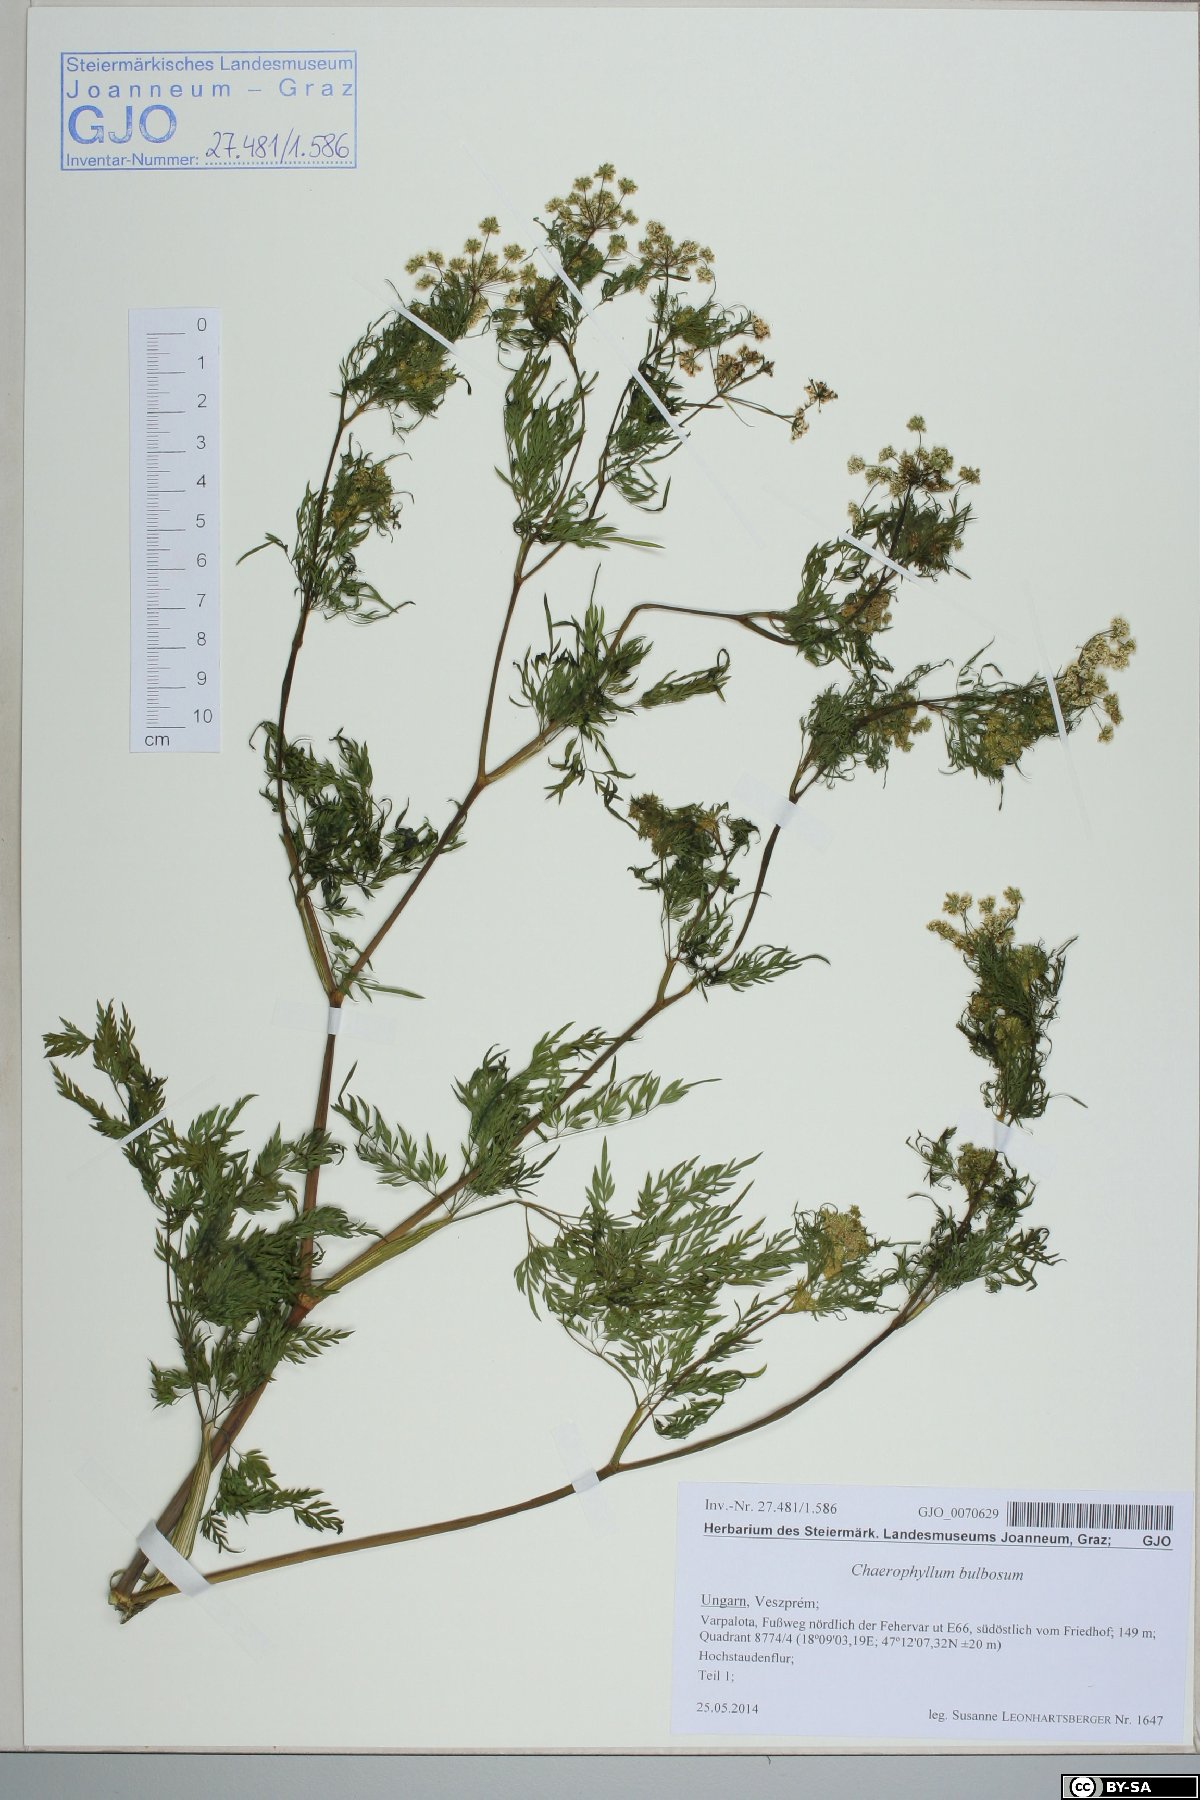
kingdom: Plantae
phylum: Tracheophyta
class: Magnoliopsida
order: Apiales
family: Apiaceae
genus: Chaerophyllum
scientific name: Chaerophyllum bulbosum
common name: Bulbous chervil
